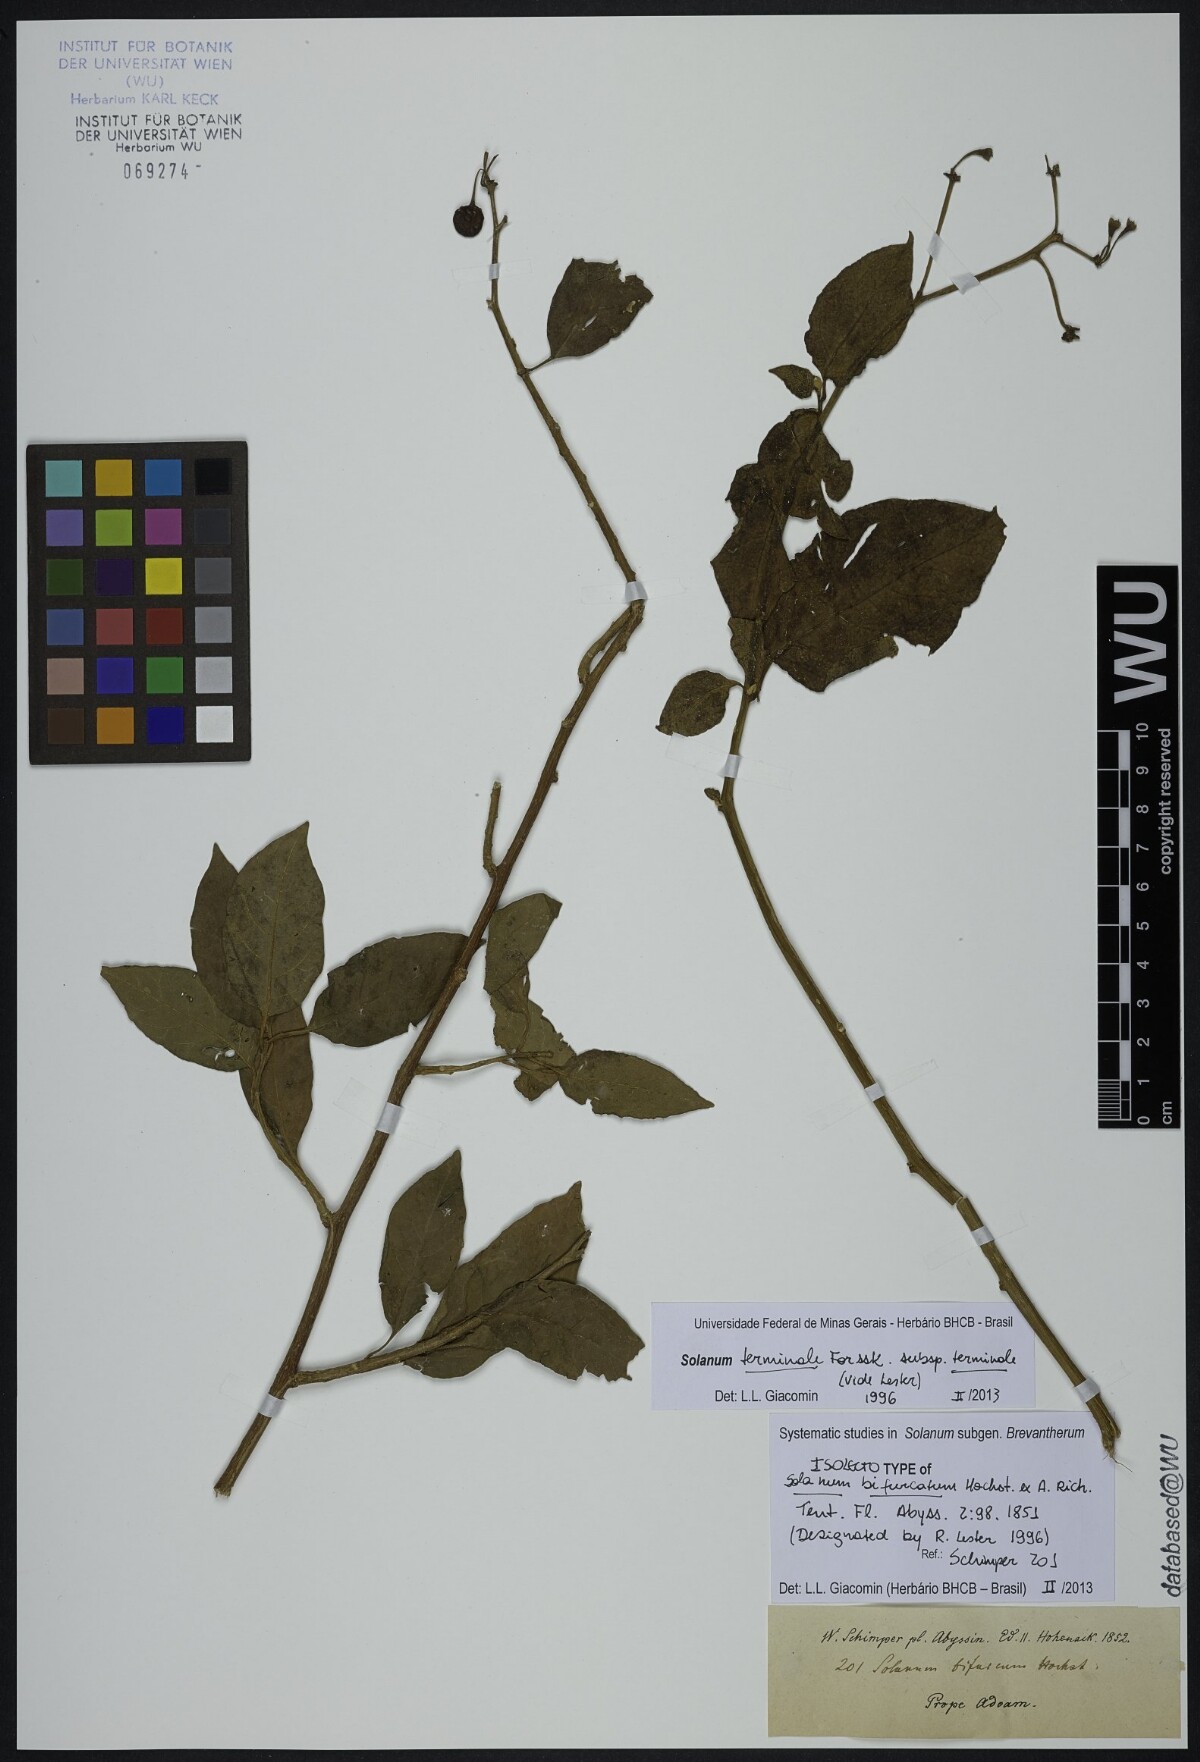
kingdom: Plantae
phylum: Tracheophyta
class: Magnoliopsida
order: Solanales
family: Solanaceae
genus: Solanum
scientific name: Solanum terminale
